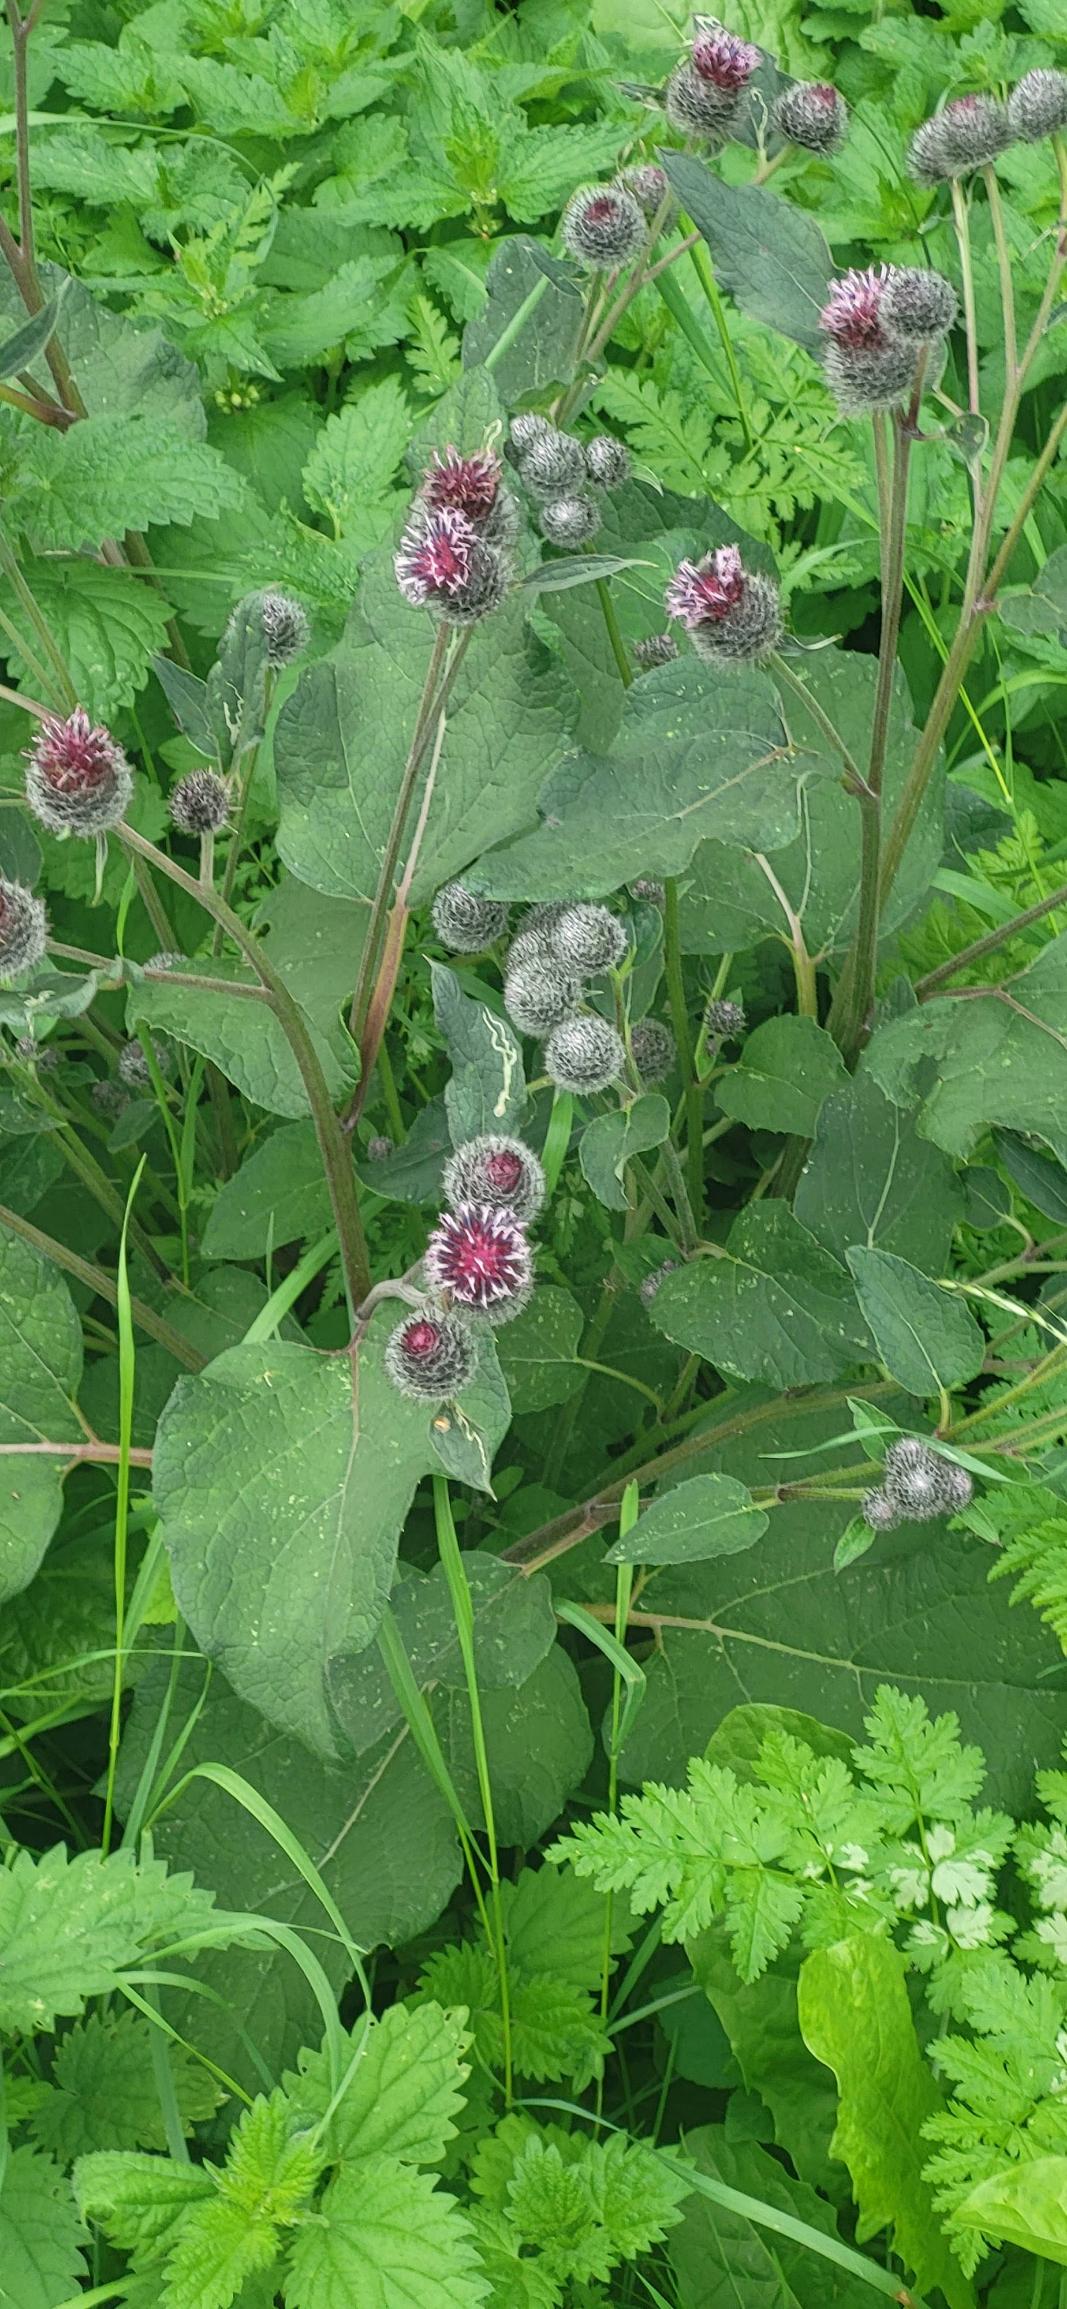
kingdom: Plantae
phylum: Tracheophyta
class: Magnoliopsida
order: Asterales
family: Asteraceae
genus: Arctium
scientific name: Arctium tomentosum
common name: Filtet burre
